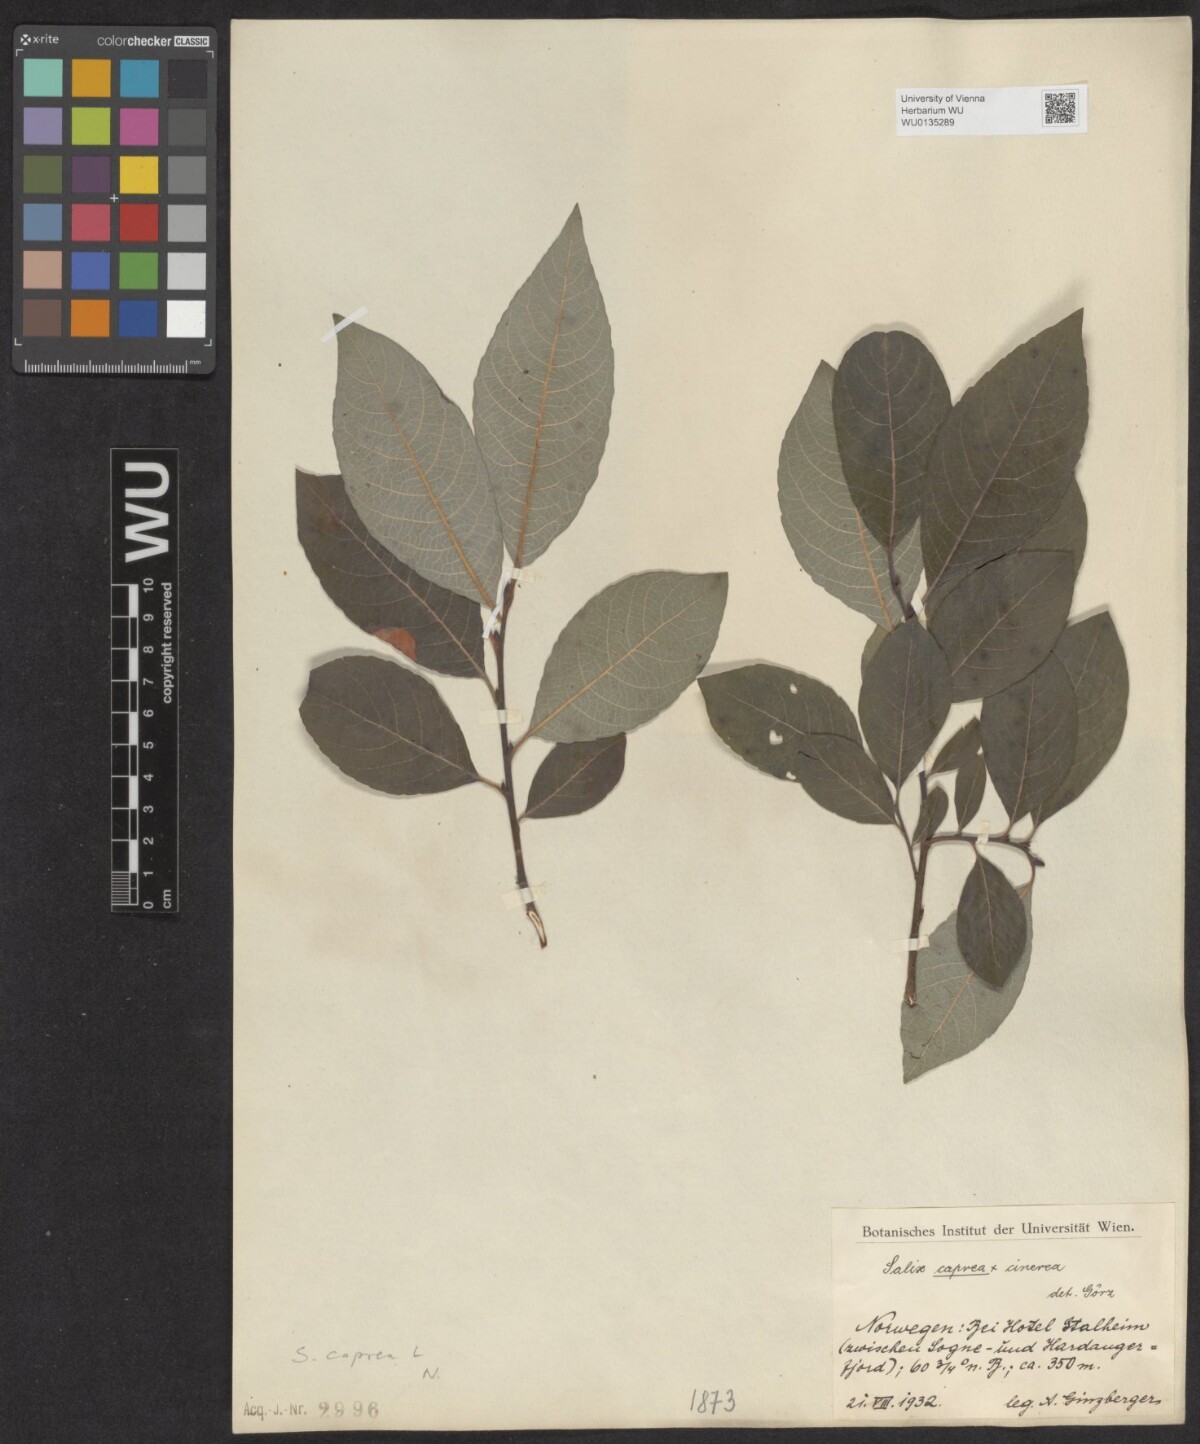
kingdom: Plantae
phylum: Tracheophyta
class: Magnoliopsida
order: Malpighiales
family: Salicaceae
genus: Salix
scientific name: Salix caprea
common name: Goat willow
